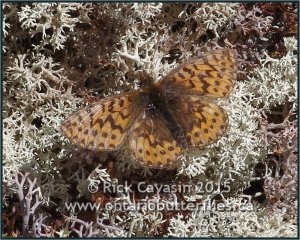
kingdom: Animalia
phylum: Arthropoda
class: Insecta
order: Lepidoptera
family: Nymphalidae
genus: Boloria
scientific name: Boloria freija
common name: Freija Fritillary
